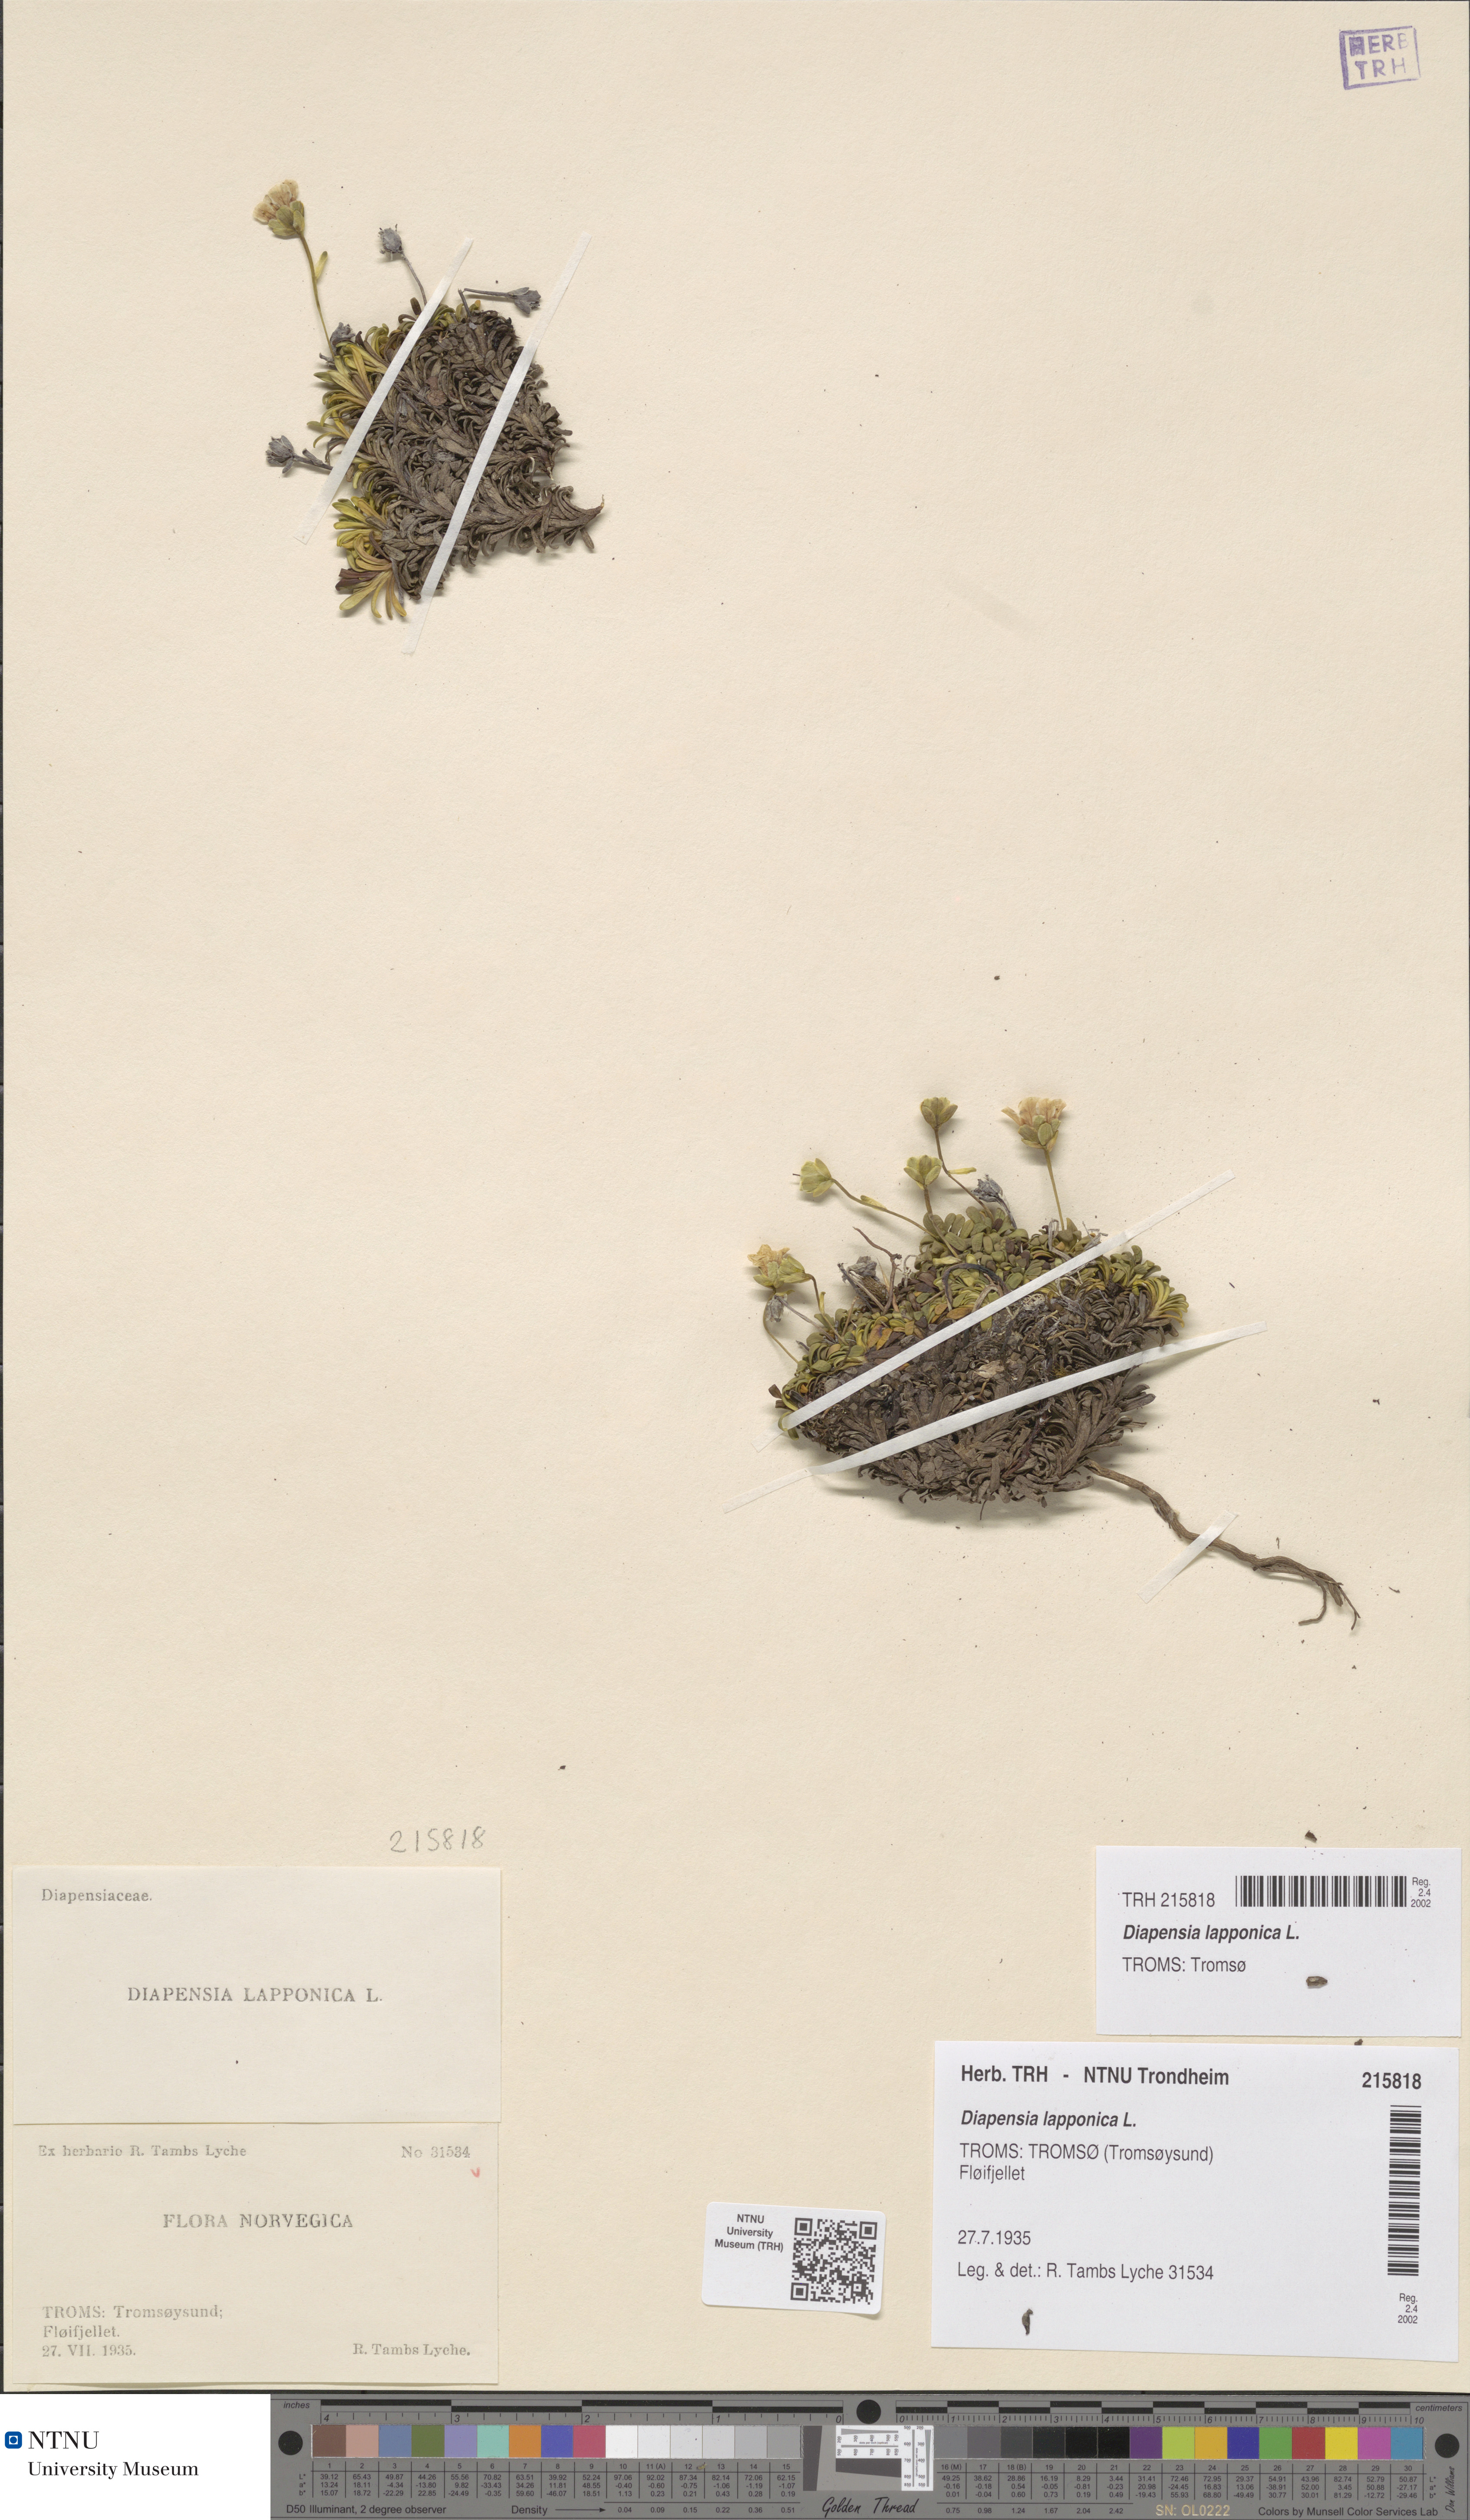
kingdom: Plantae
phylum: Tracheophyta
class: Magnoliopsida
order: Ericales
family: Diapensiaceae
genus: Diapensia
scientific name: Diapensia lapponica
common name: Diapensia
